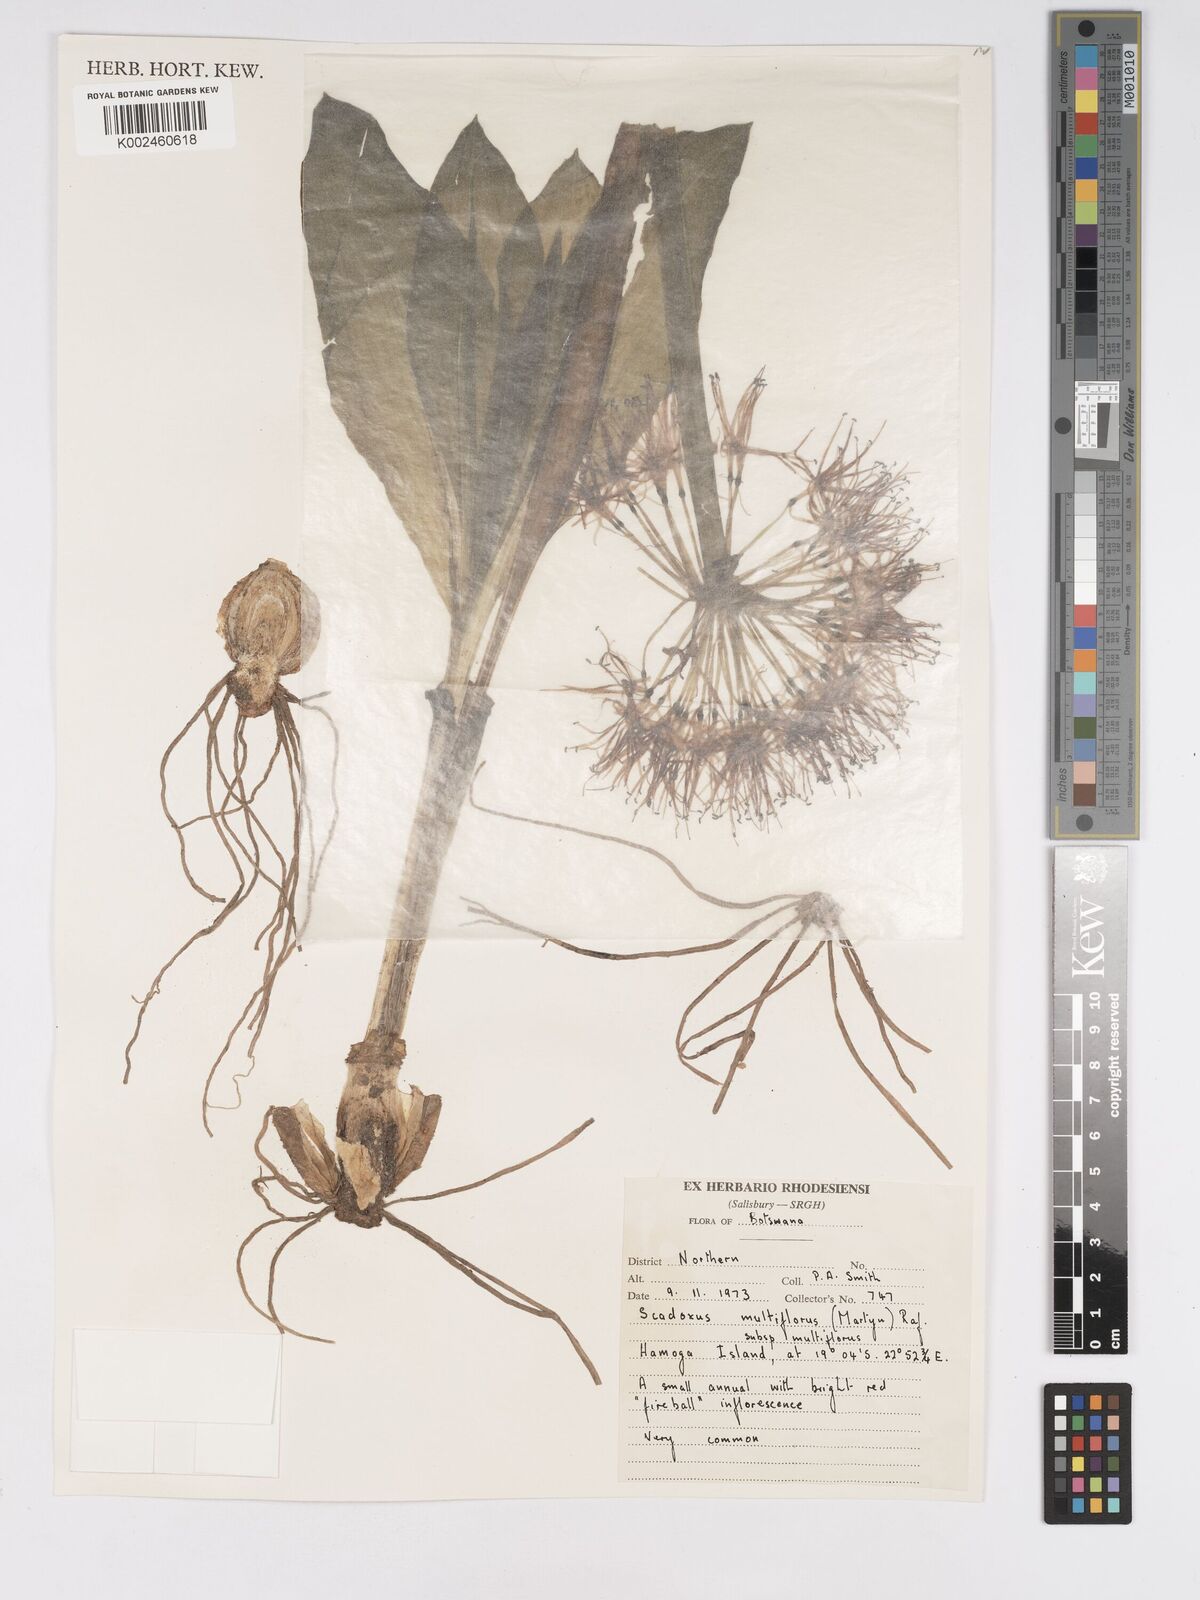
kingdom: Plantae
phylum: Tracheophyta
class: Liliopsida
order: Asparagales
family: Amaryllidaceae
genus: Scadoxus
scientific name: Scadoxus multiflorus
